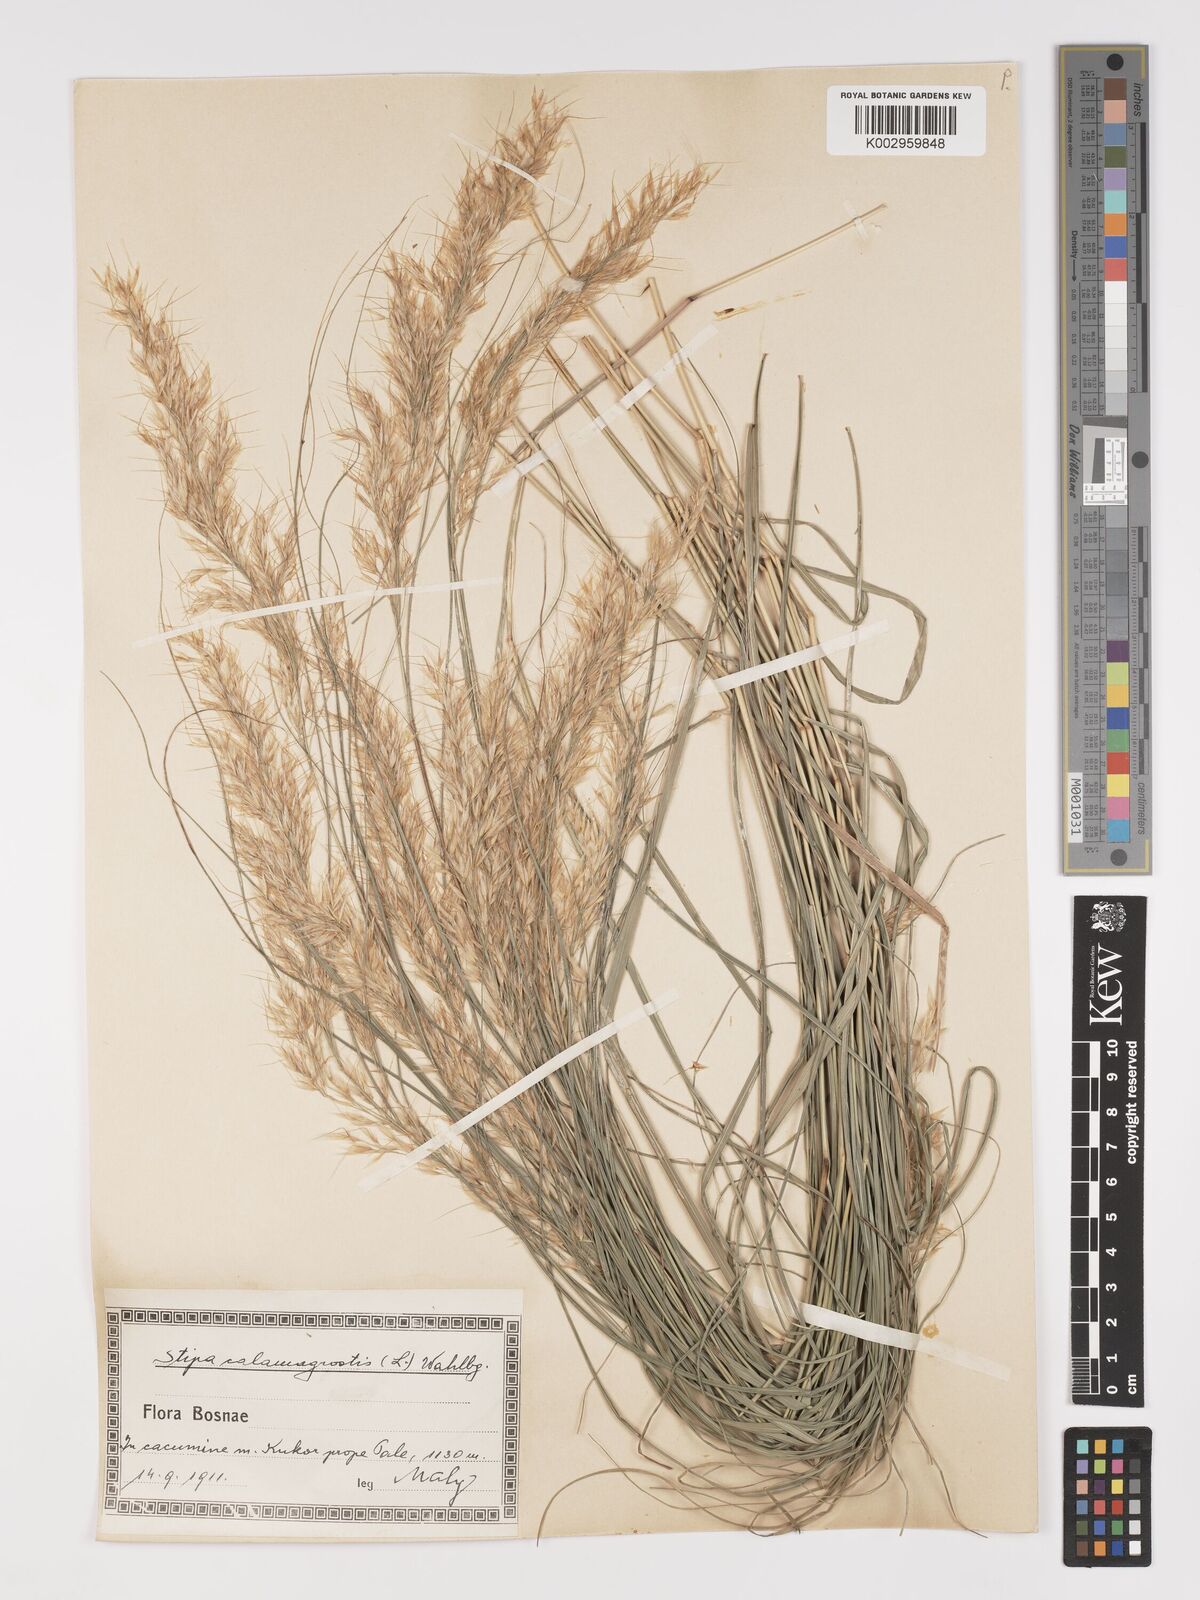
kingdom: Plantae
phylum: Tracheophyta
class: Liliopsida
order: Poales
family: Poaceae
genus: Achnatherum
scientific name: Achnatherum calamagrostis
